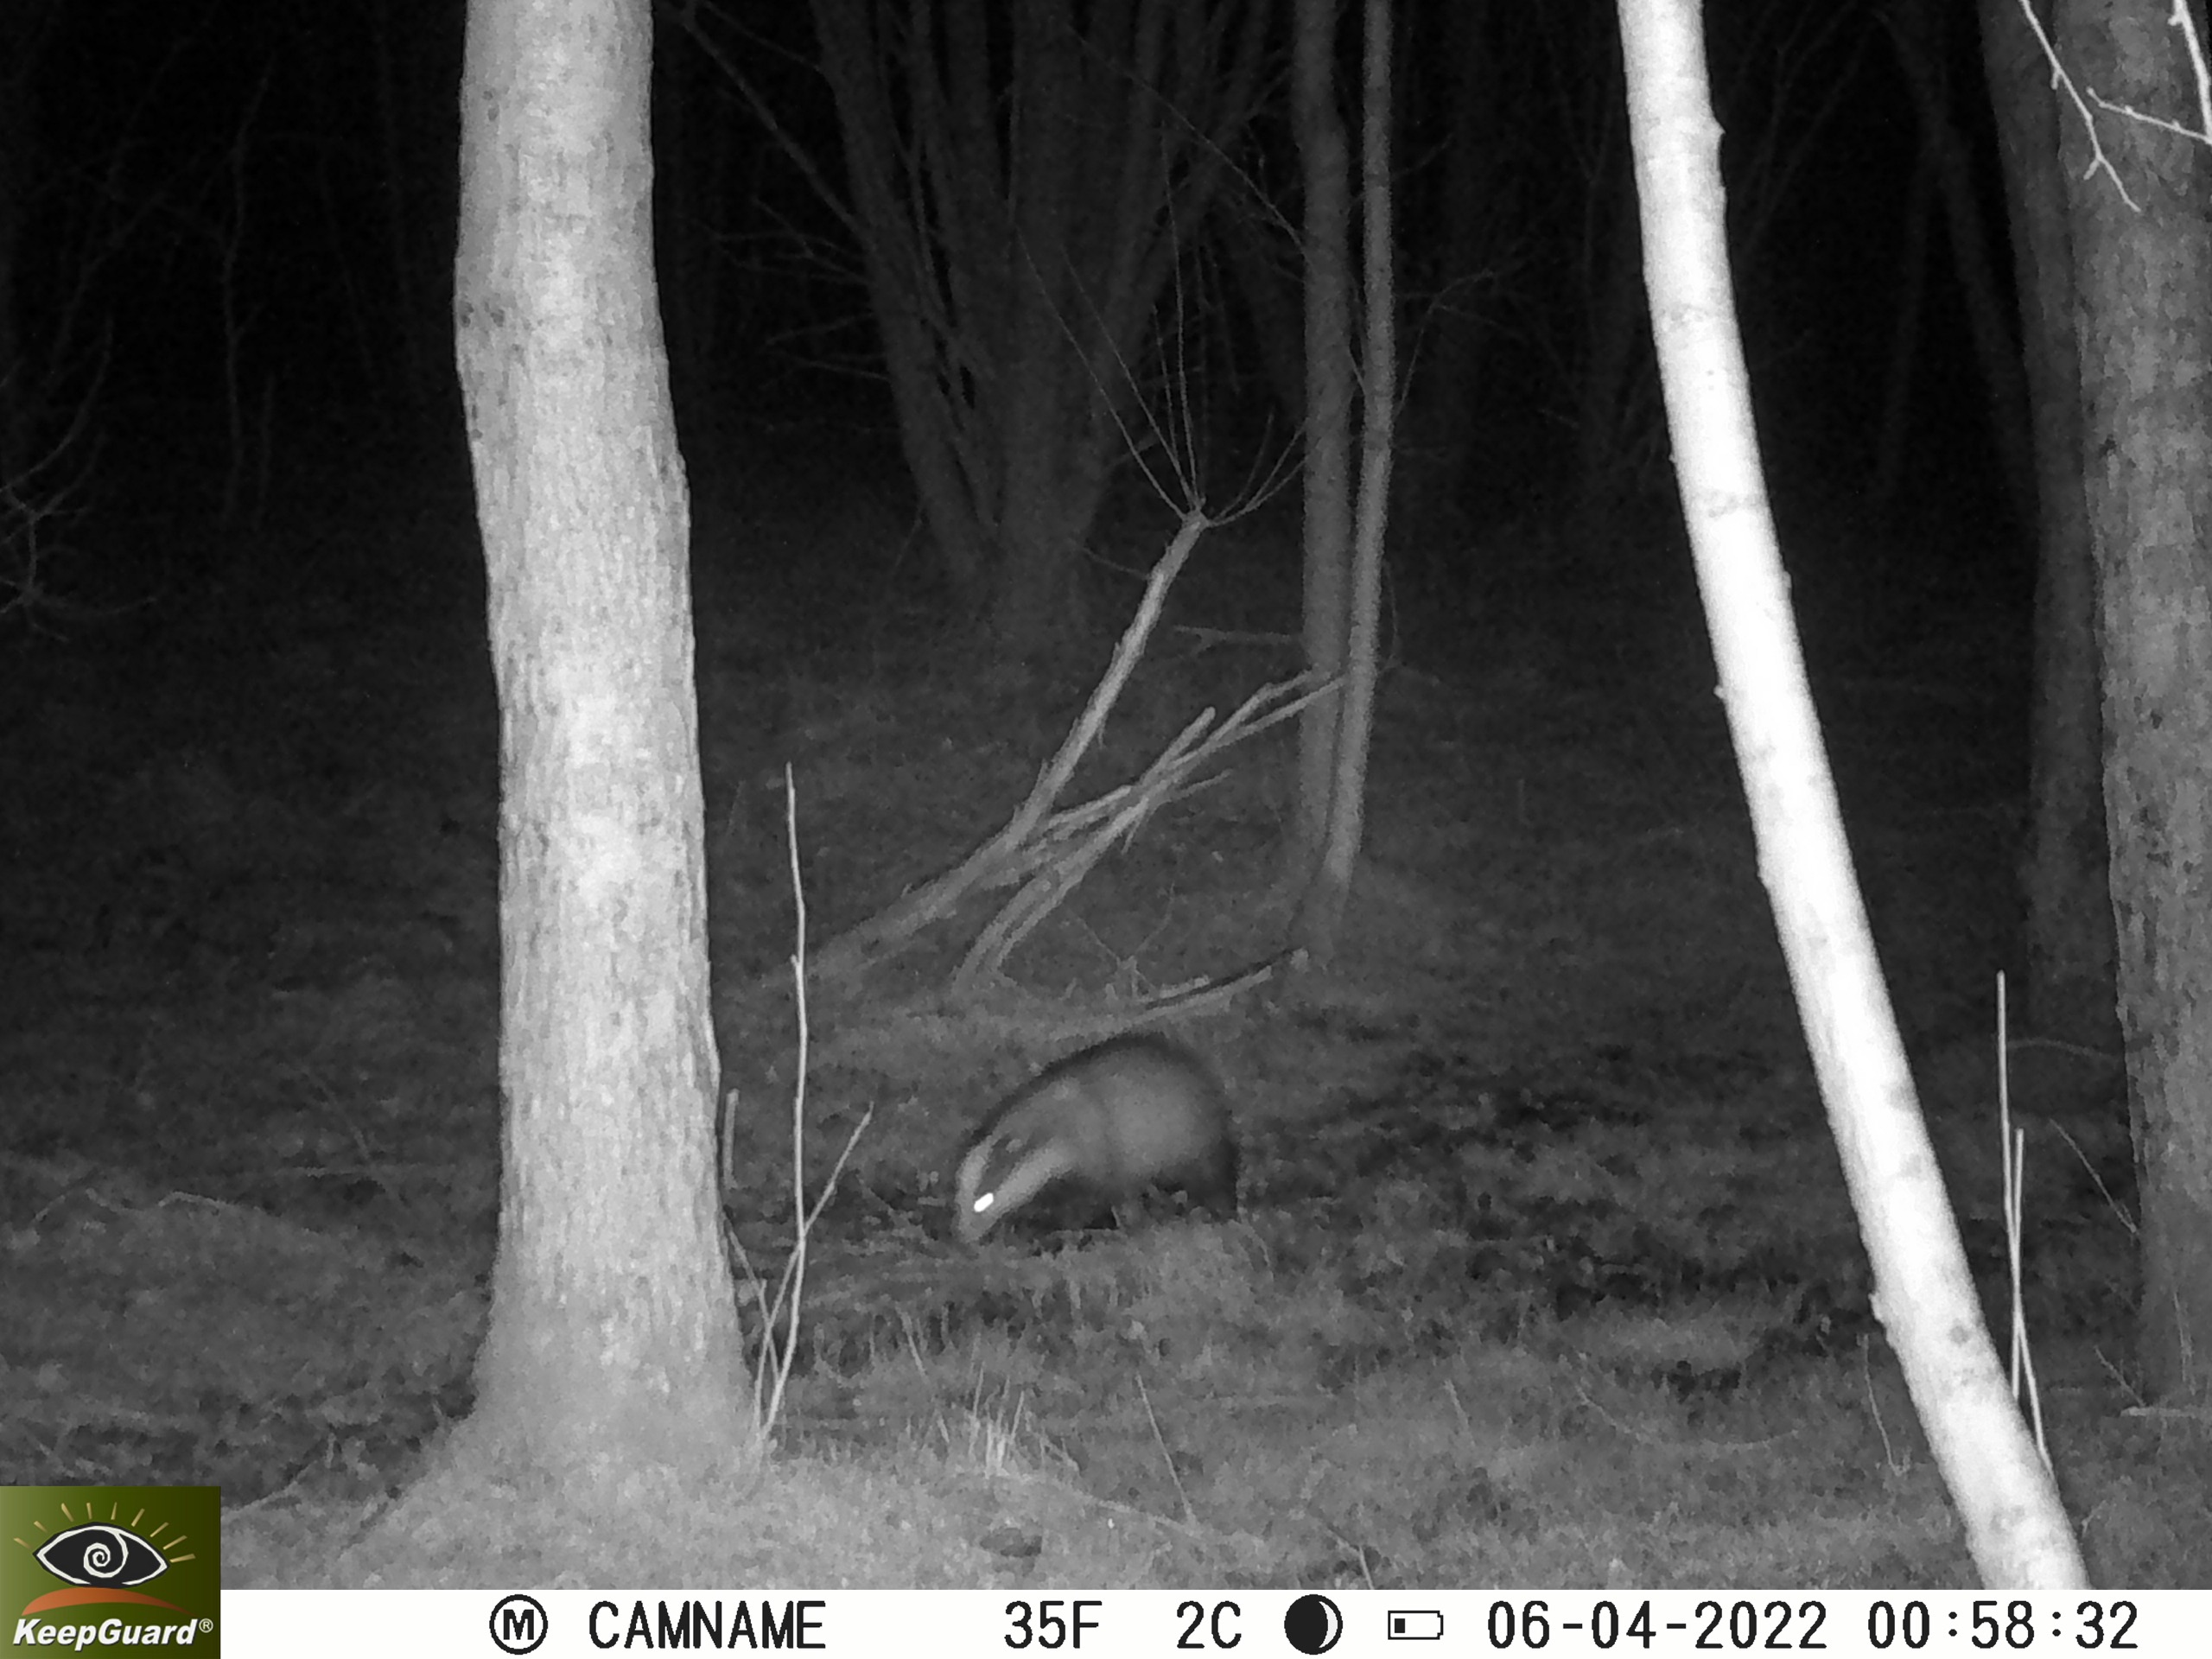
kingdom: Animalia
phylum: Chordata
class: Mammalia
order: Carnivora
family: Mustelidae
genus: Meles
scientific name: Meles meles
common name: Grævling
